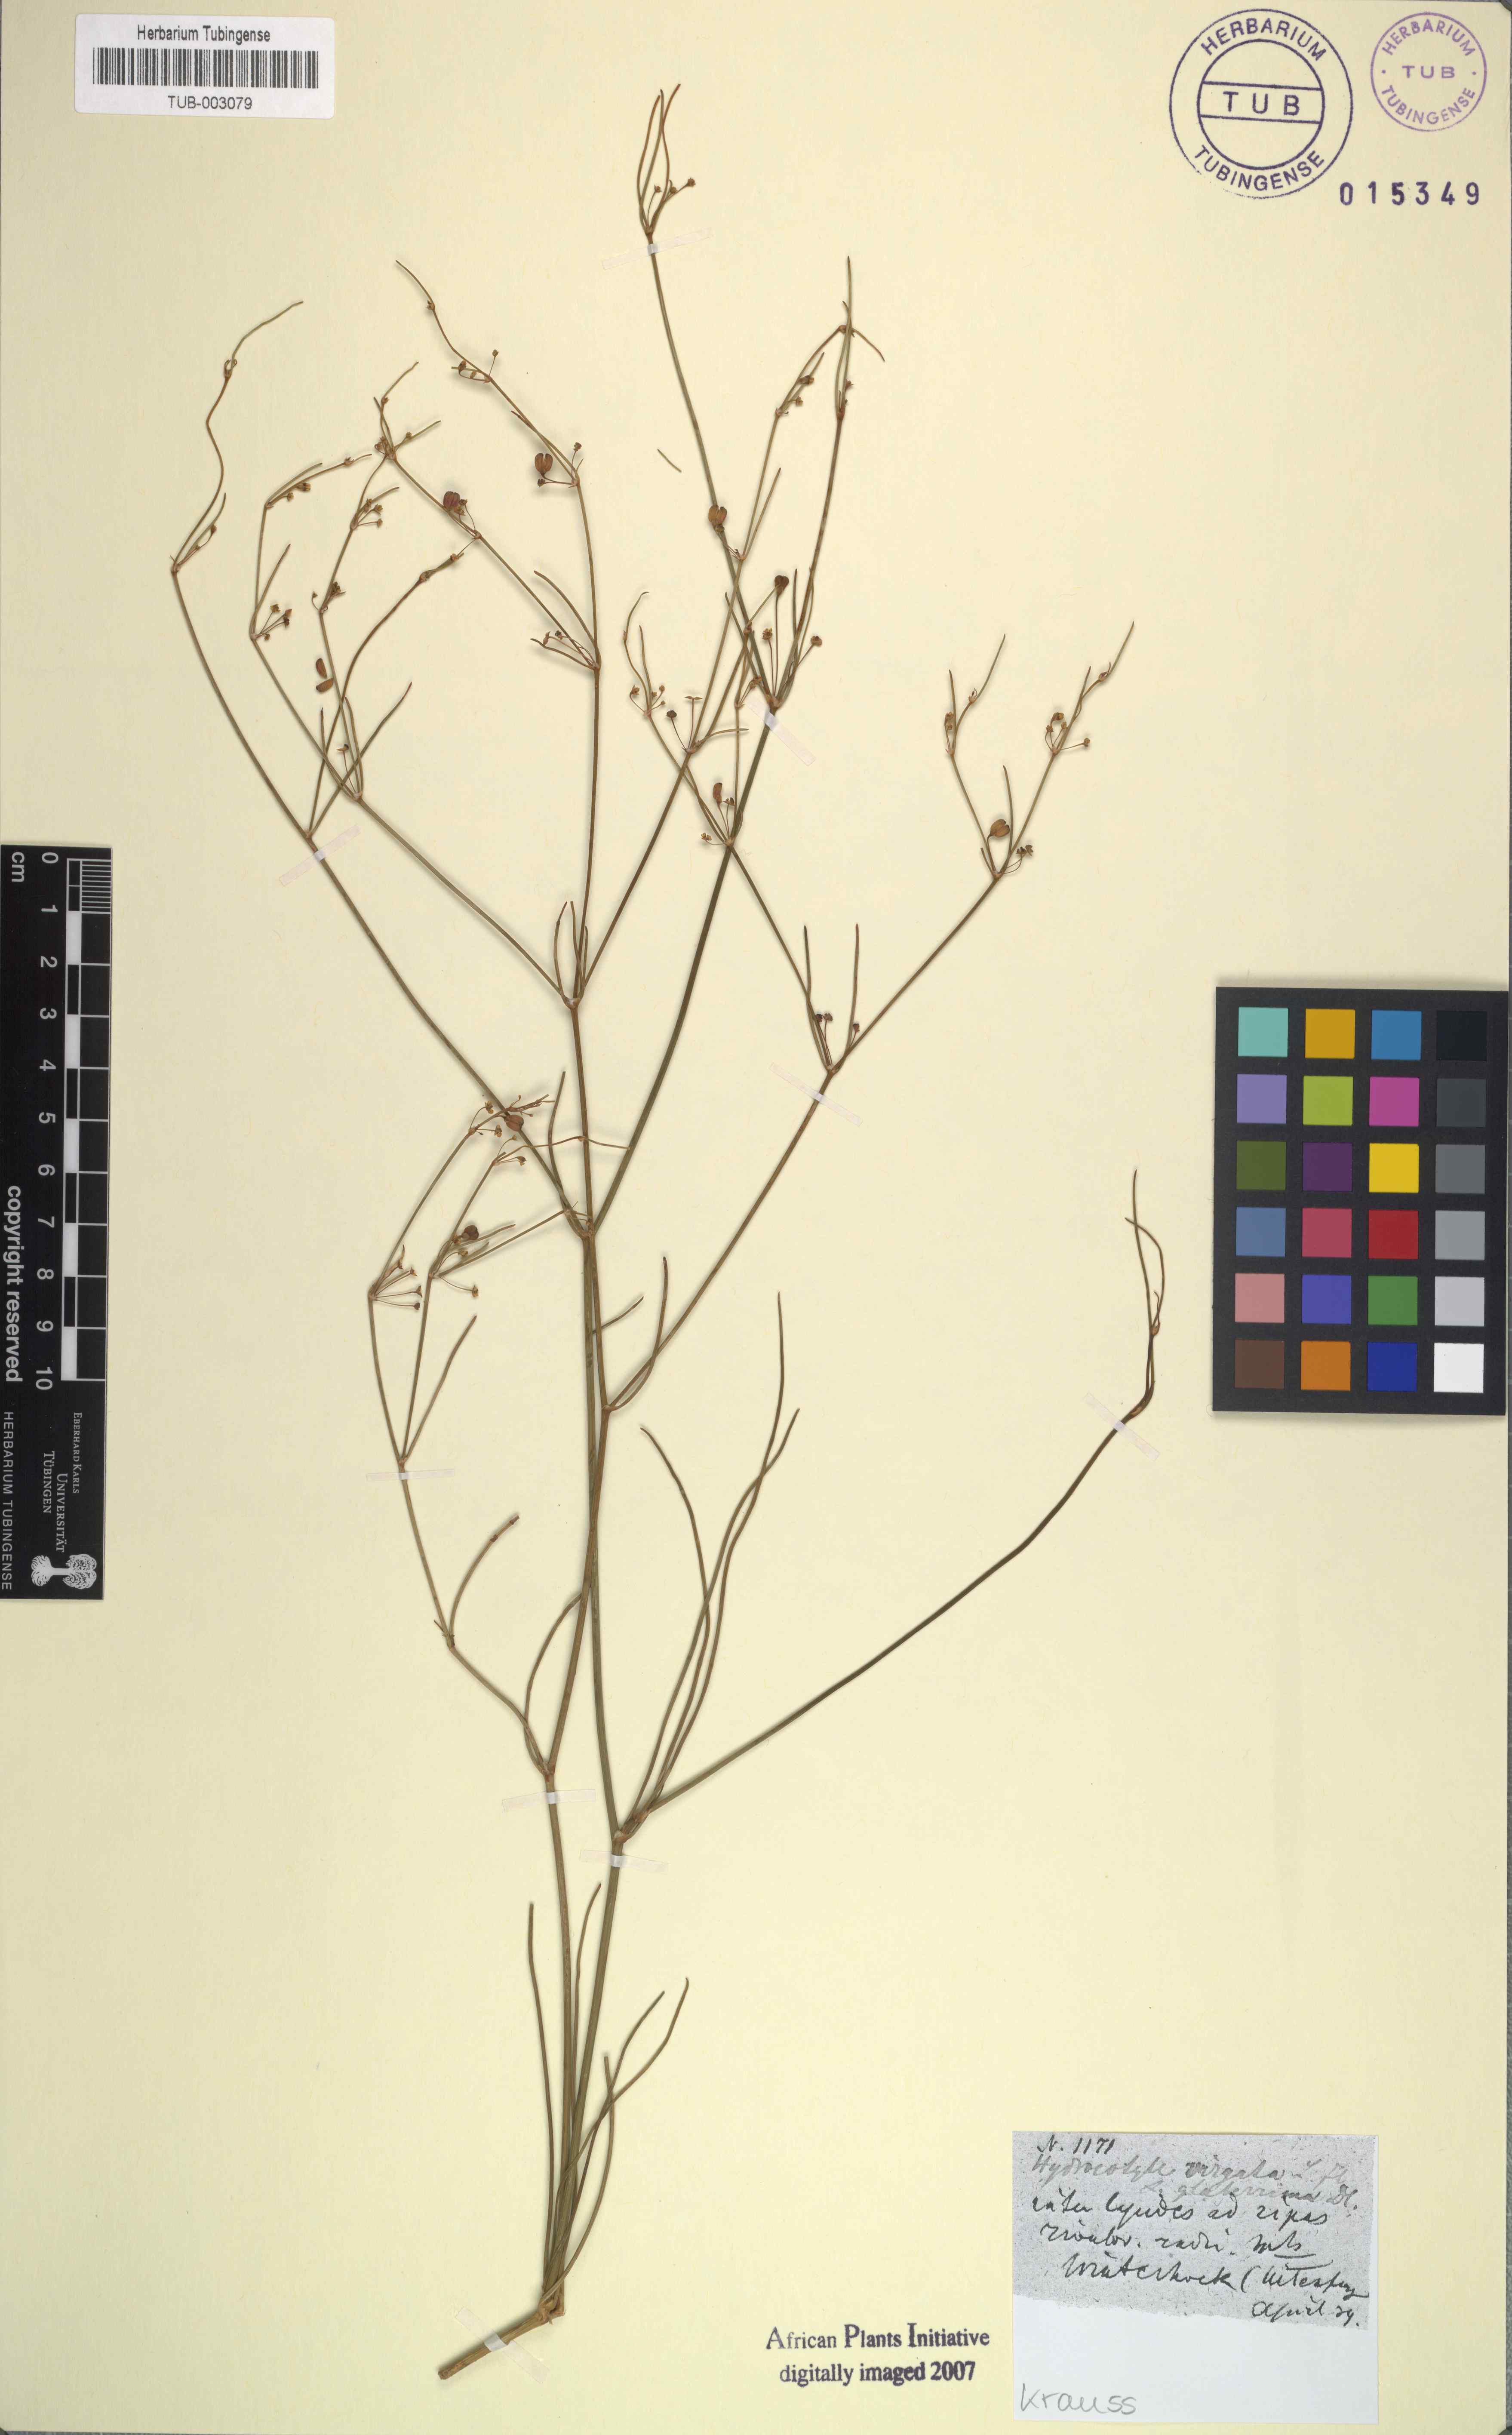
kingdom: Plantae
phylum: Tracheophyta
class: Magnoliopsida
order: Apiales
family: Apiaceae
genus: Centella
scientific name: Centella virgata
